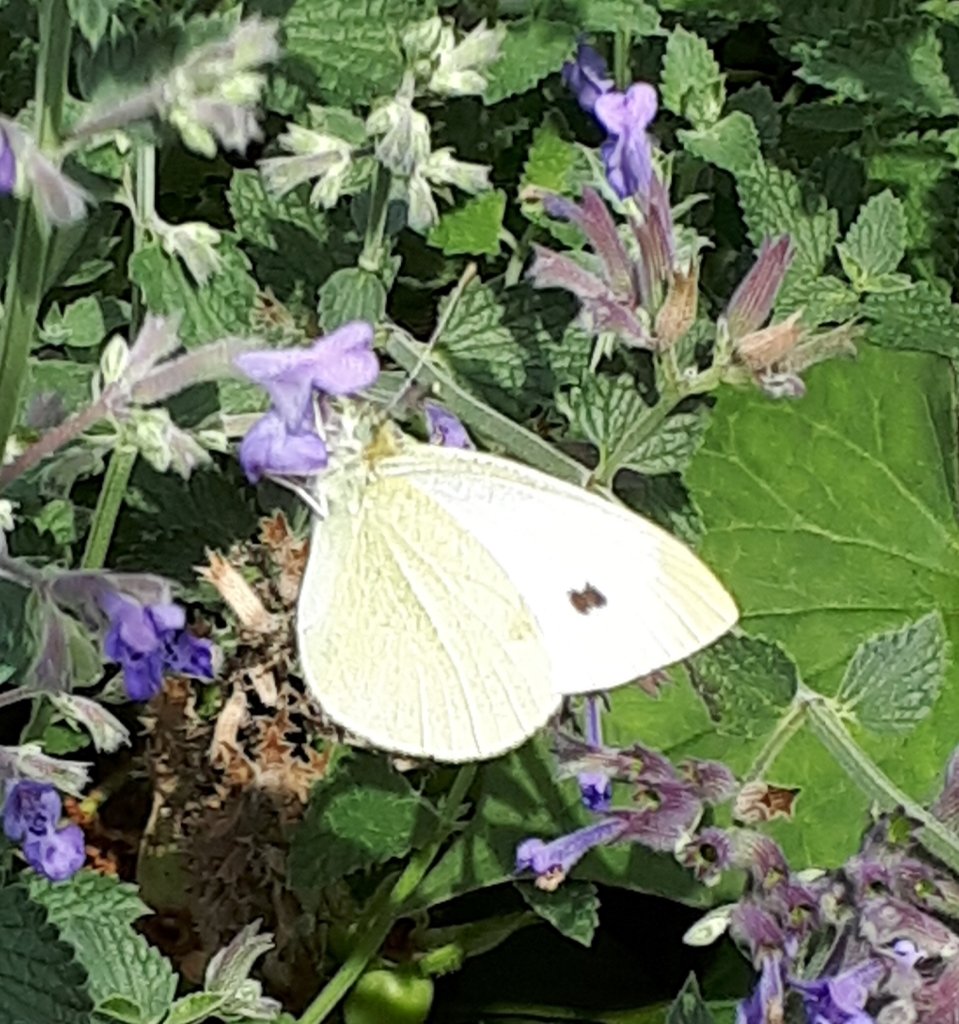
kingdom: Animalia
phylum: Arthropoda
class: Insecta
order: Lepidoptera
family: Pieridae
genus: Pieris
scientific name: Pieris rapae
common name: Cabbage White
